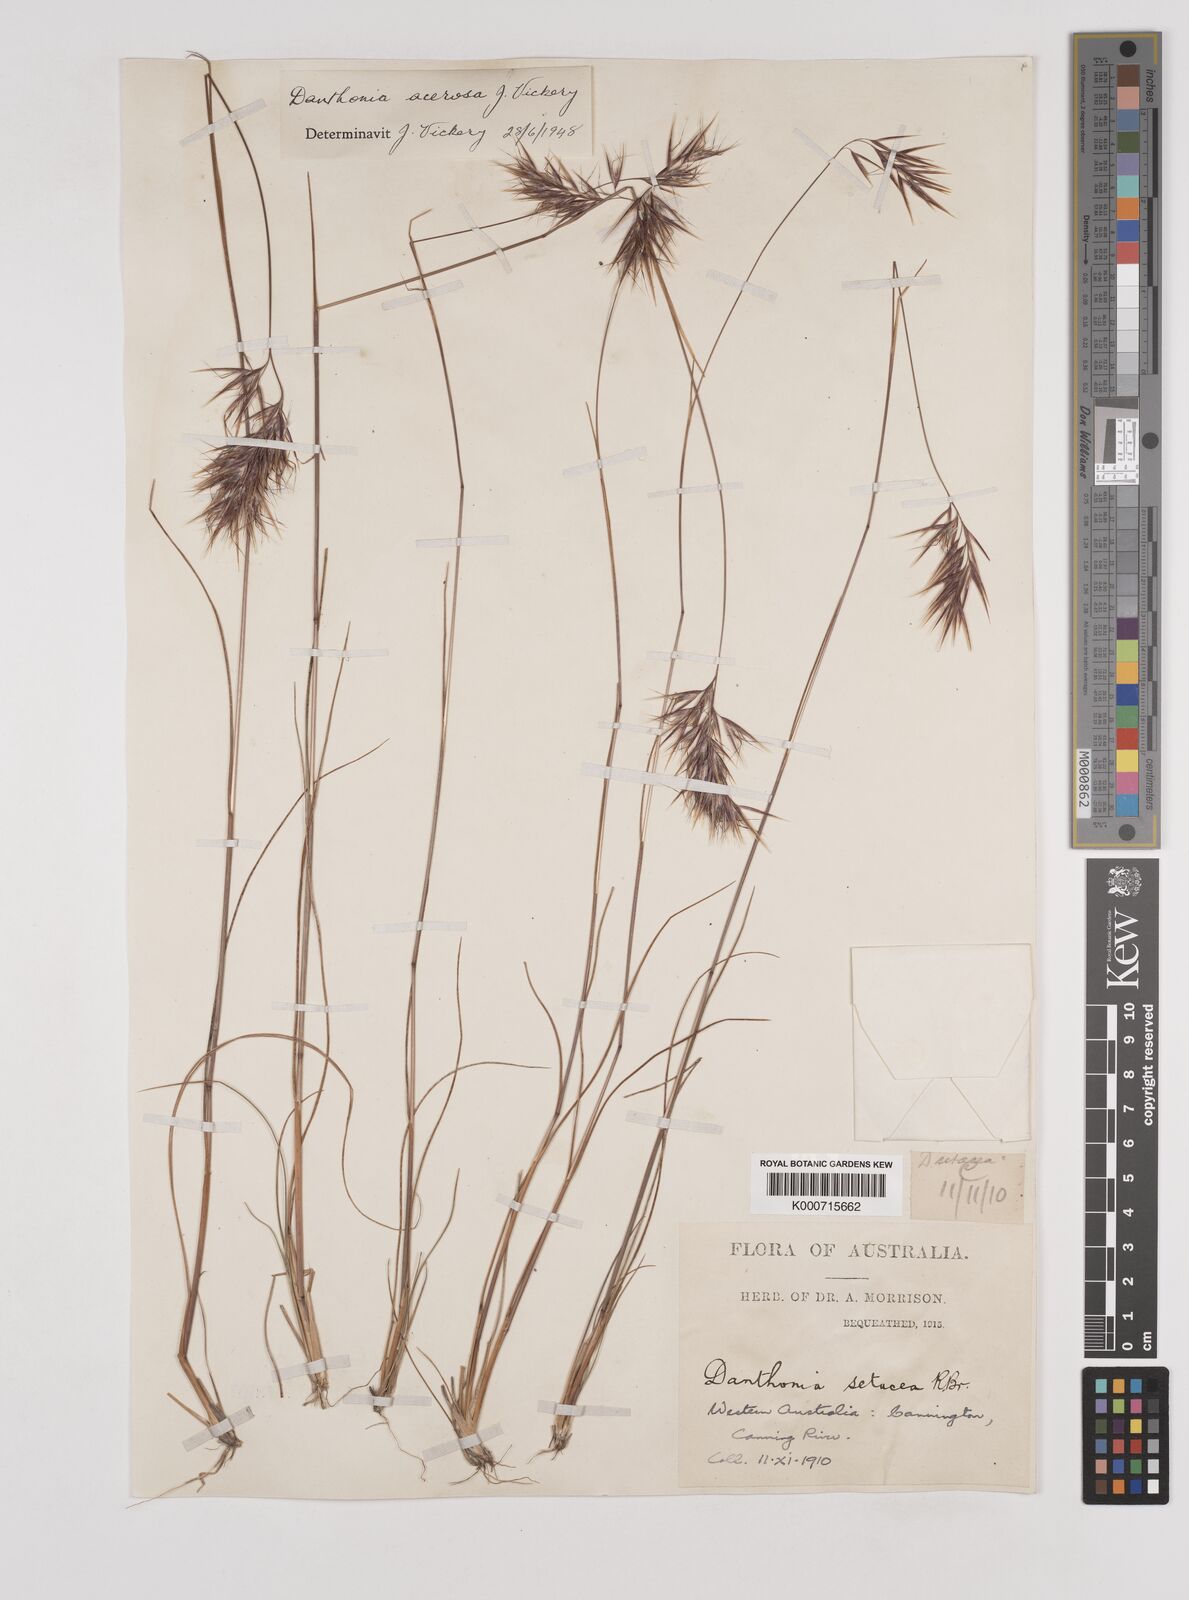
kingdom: Plantae
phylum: Tracheophyta
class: Liliopsida
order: Poales
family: Poaceae
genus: Rytidosperma
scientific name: Rytidosperma acerosum
